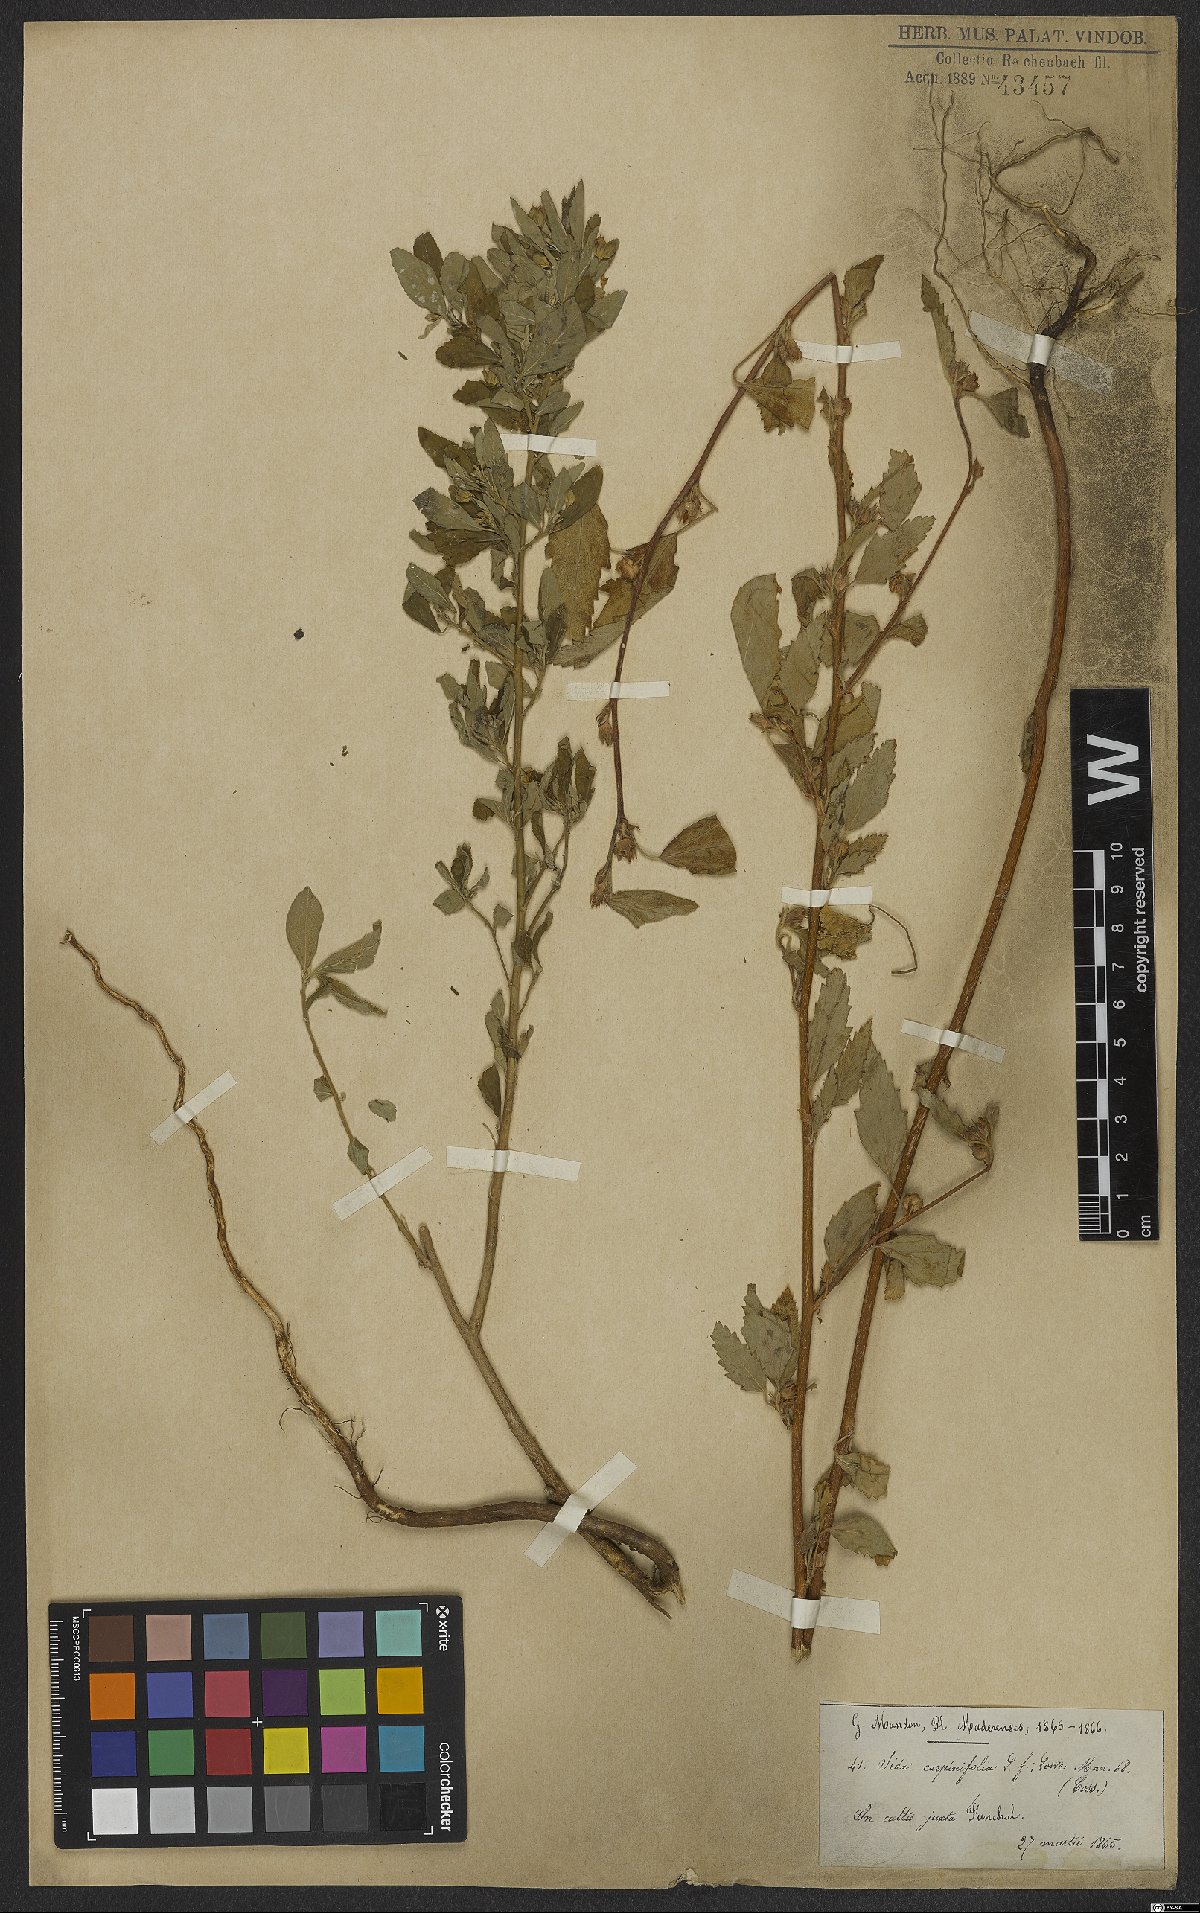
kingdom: Plantae
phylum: Tracheophyta
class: Magnoliopsida
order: Malvales
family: Malvaceae
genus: Sida
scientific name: Sida acuta
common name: Common wireweed
